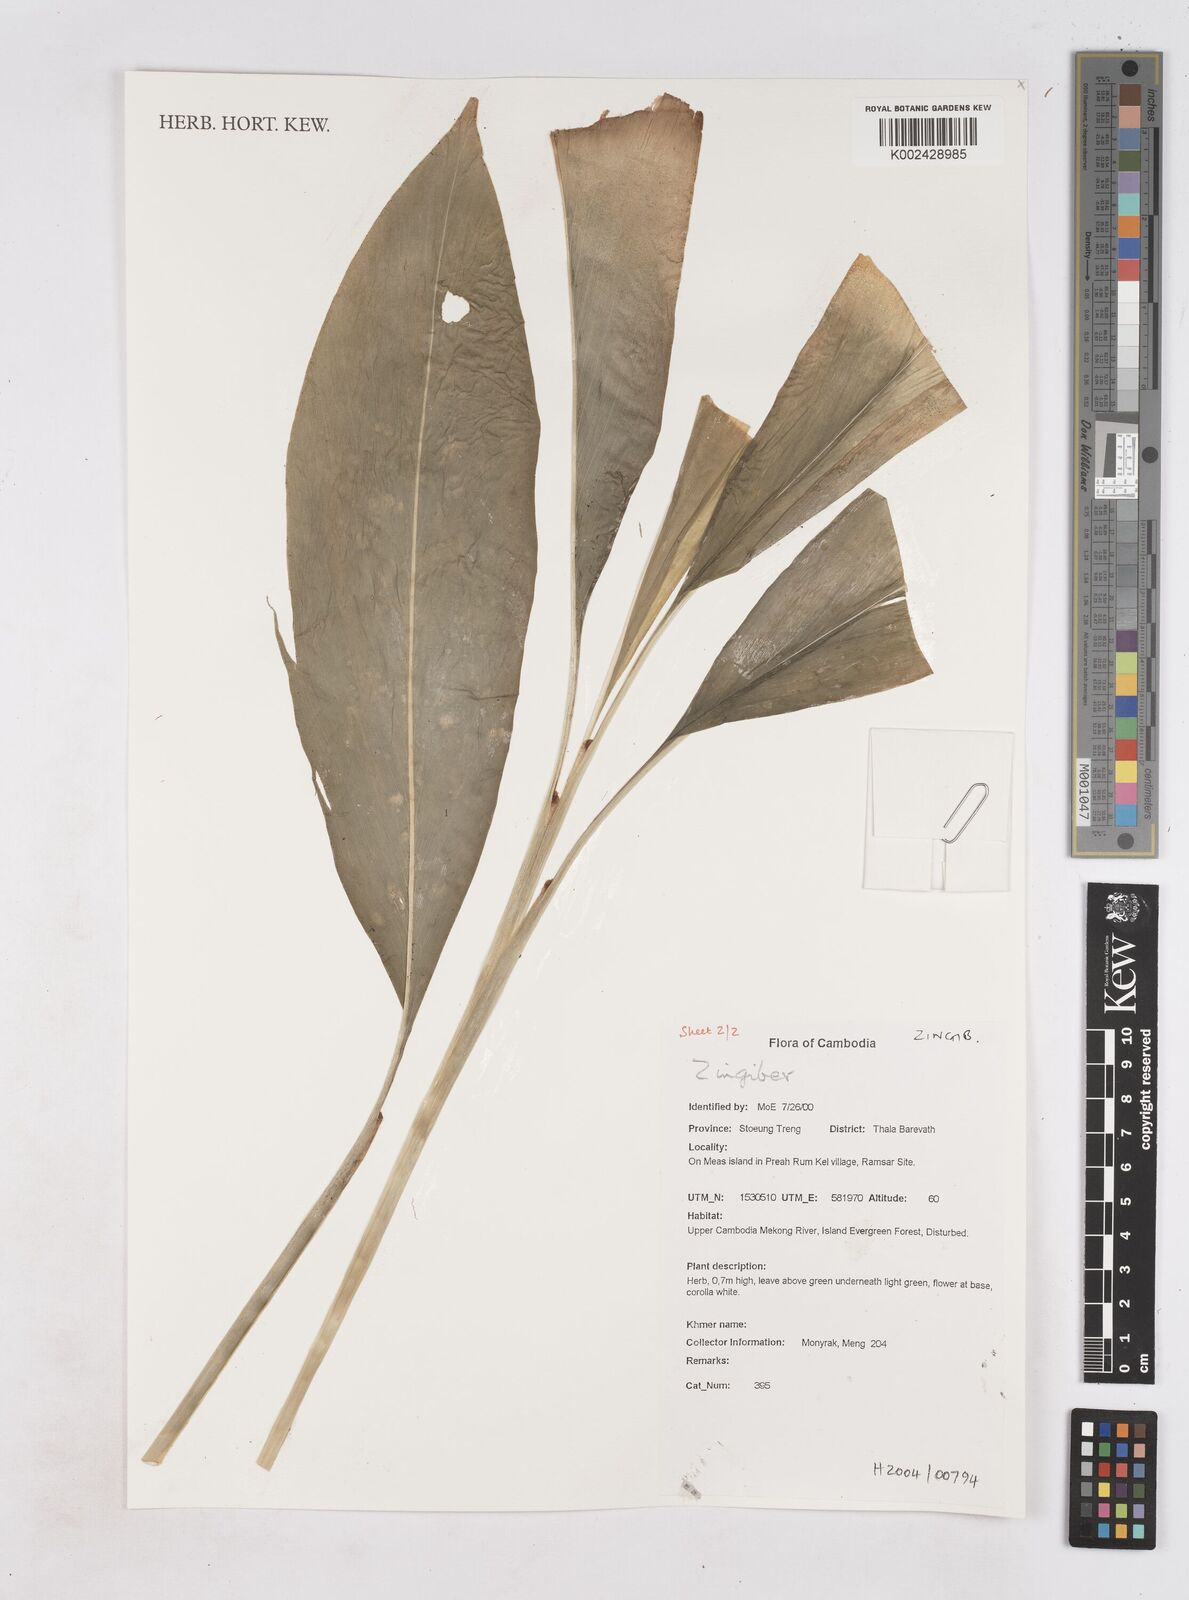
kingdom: Plantae
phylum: Tracheophyta
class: Liliopsida
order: Zingiberales
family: Zingiberaceae
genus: Zingiber
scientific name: Zingiber
